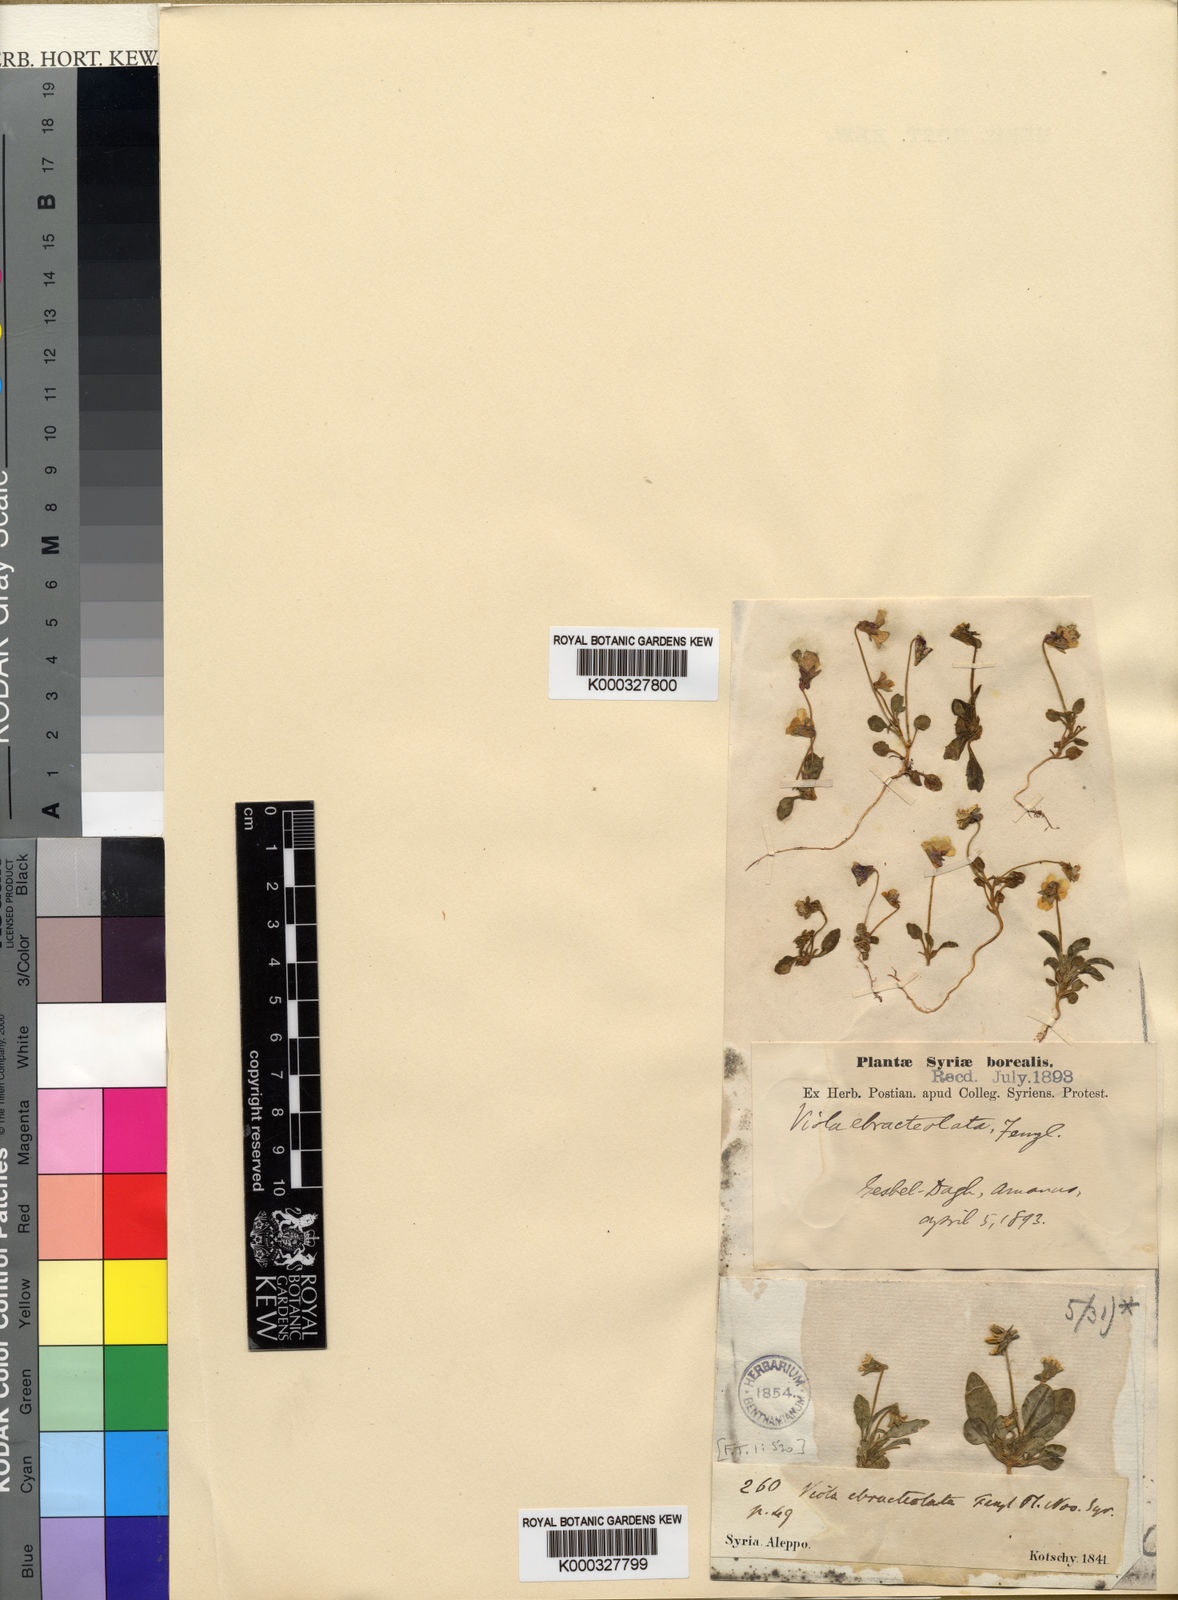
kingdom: Plantae
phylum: Tracheophyta
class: Magnoliopsida
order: Malpighiales
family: Violaceae
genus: Viola
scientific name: Viola modesta
